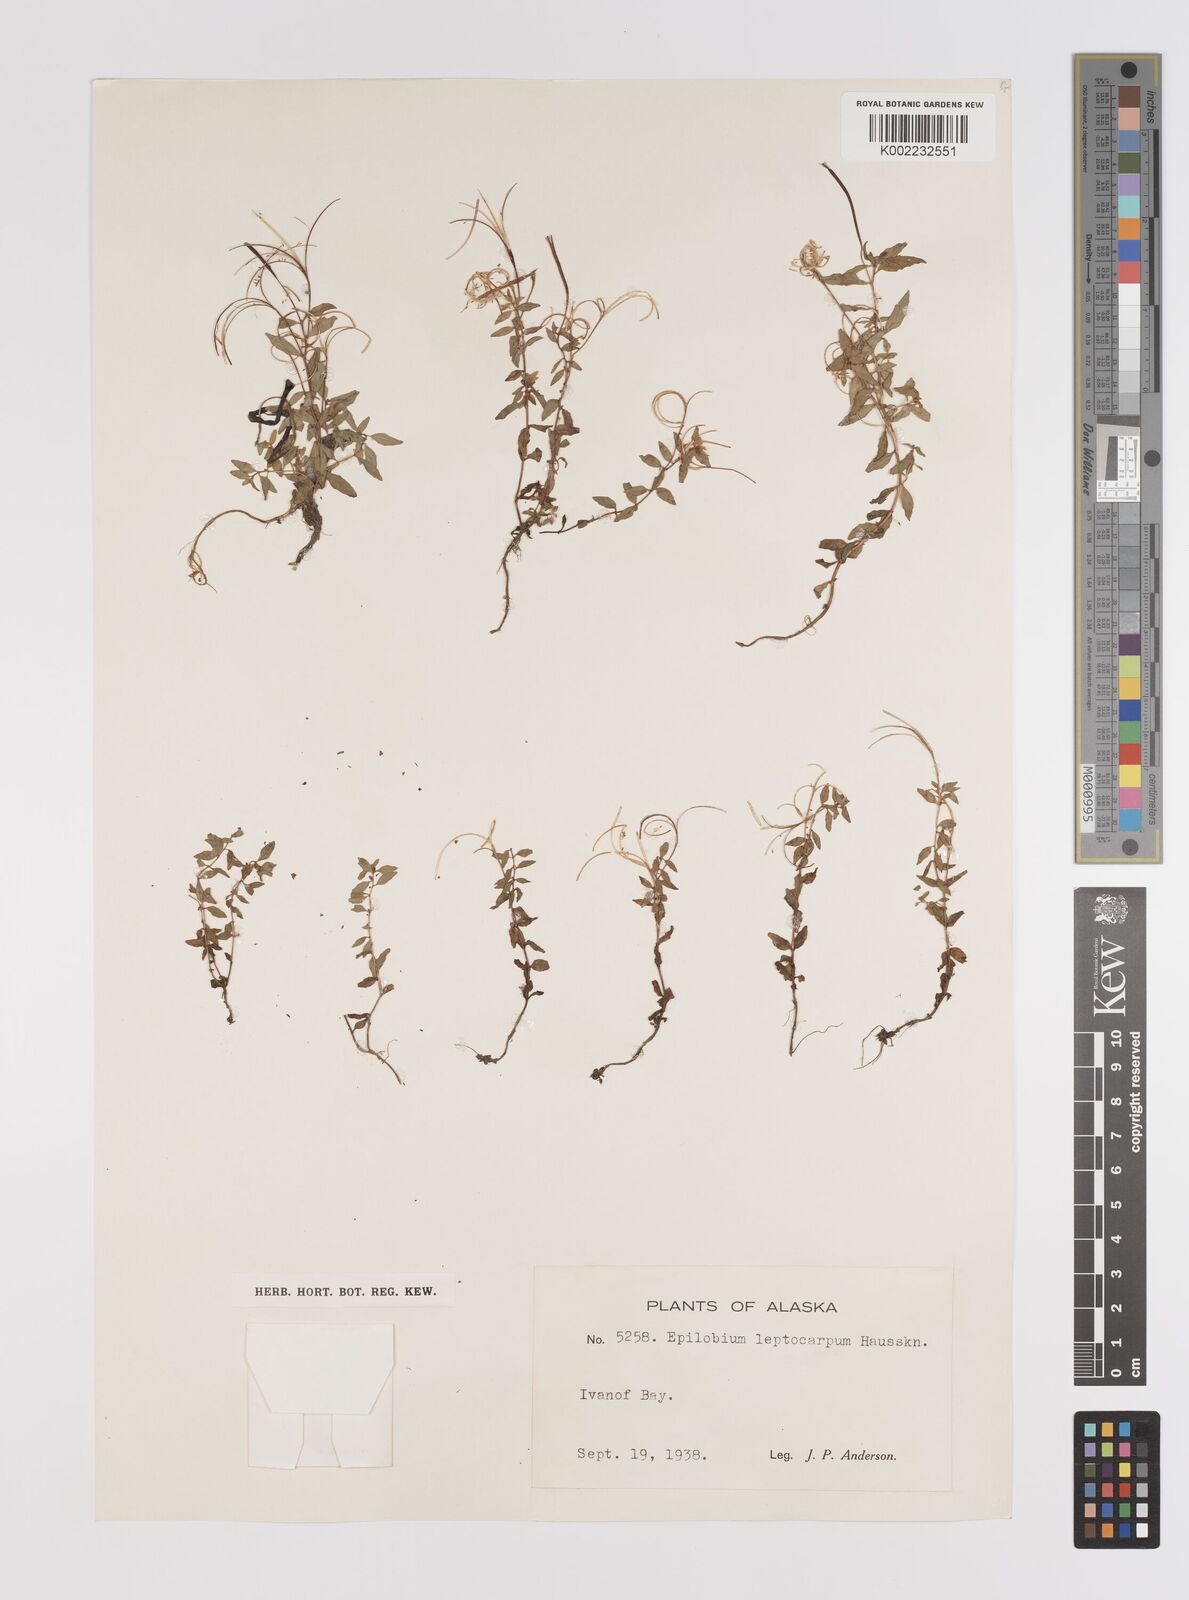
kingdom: Plantae
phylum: Tracheophyta
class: Magnoliopsida
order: Myrtales
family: Onagraceae
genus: Epilobium
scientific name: Epilobium leptocarpum
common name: Low willowherb
